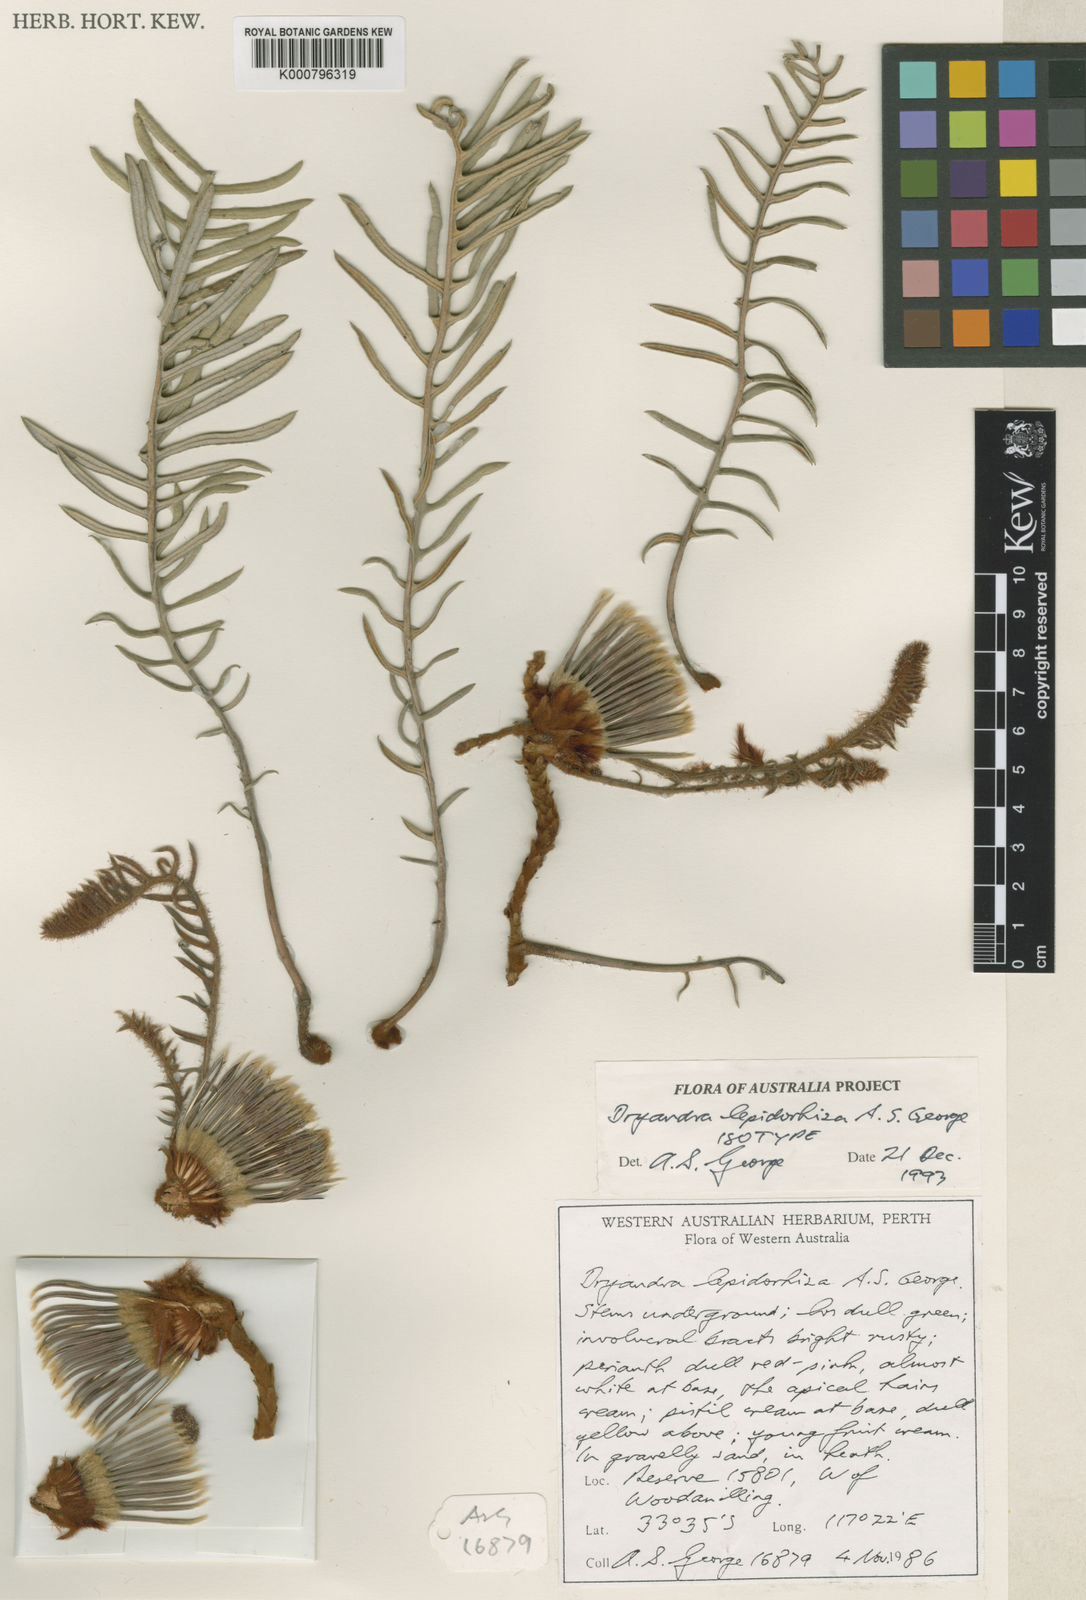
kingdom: Plantae
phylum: Tracheophyta
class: Magnoliopsida
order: Proteales
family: Proteaceae
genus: Banksia
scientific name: Banksia dallanneyi
